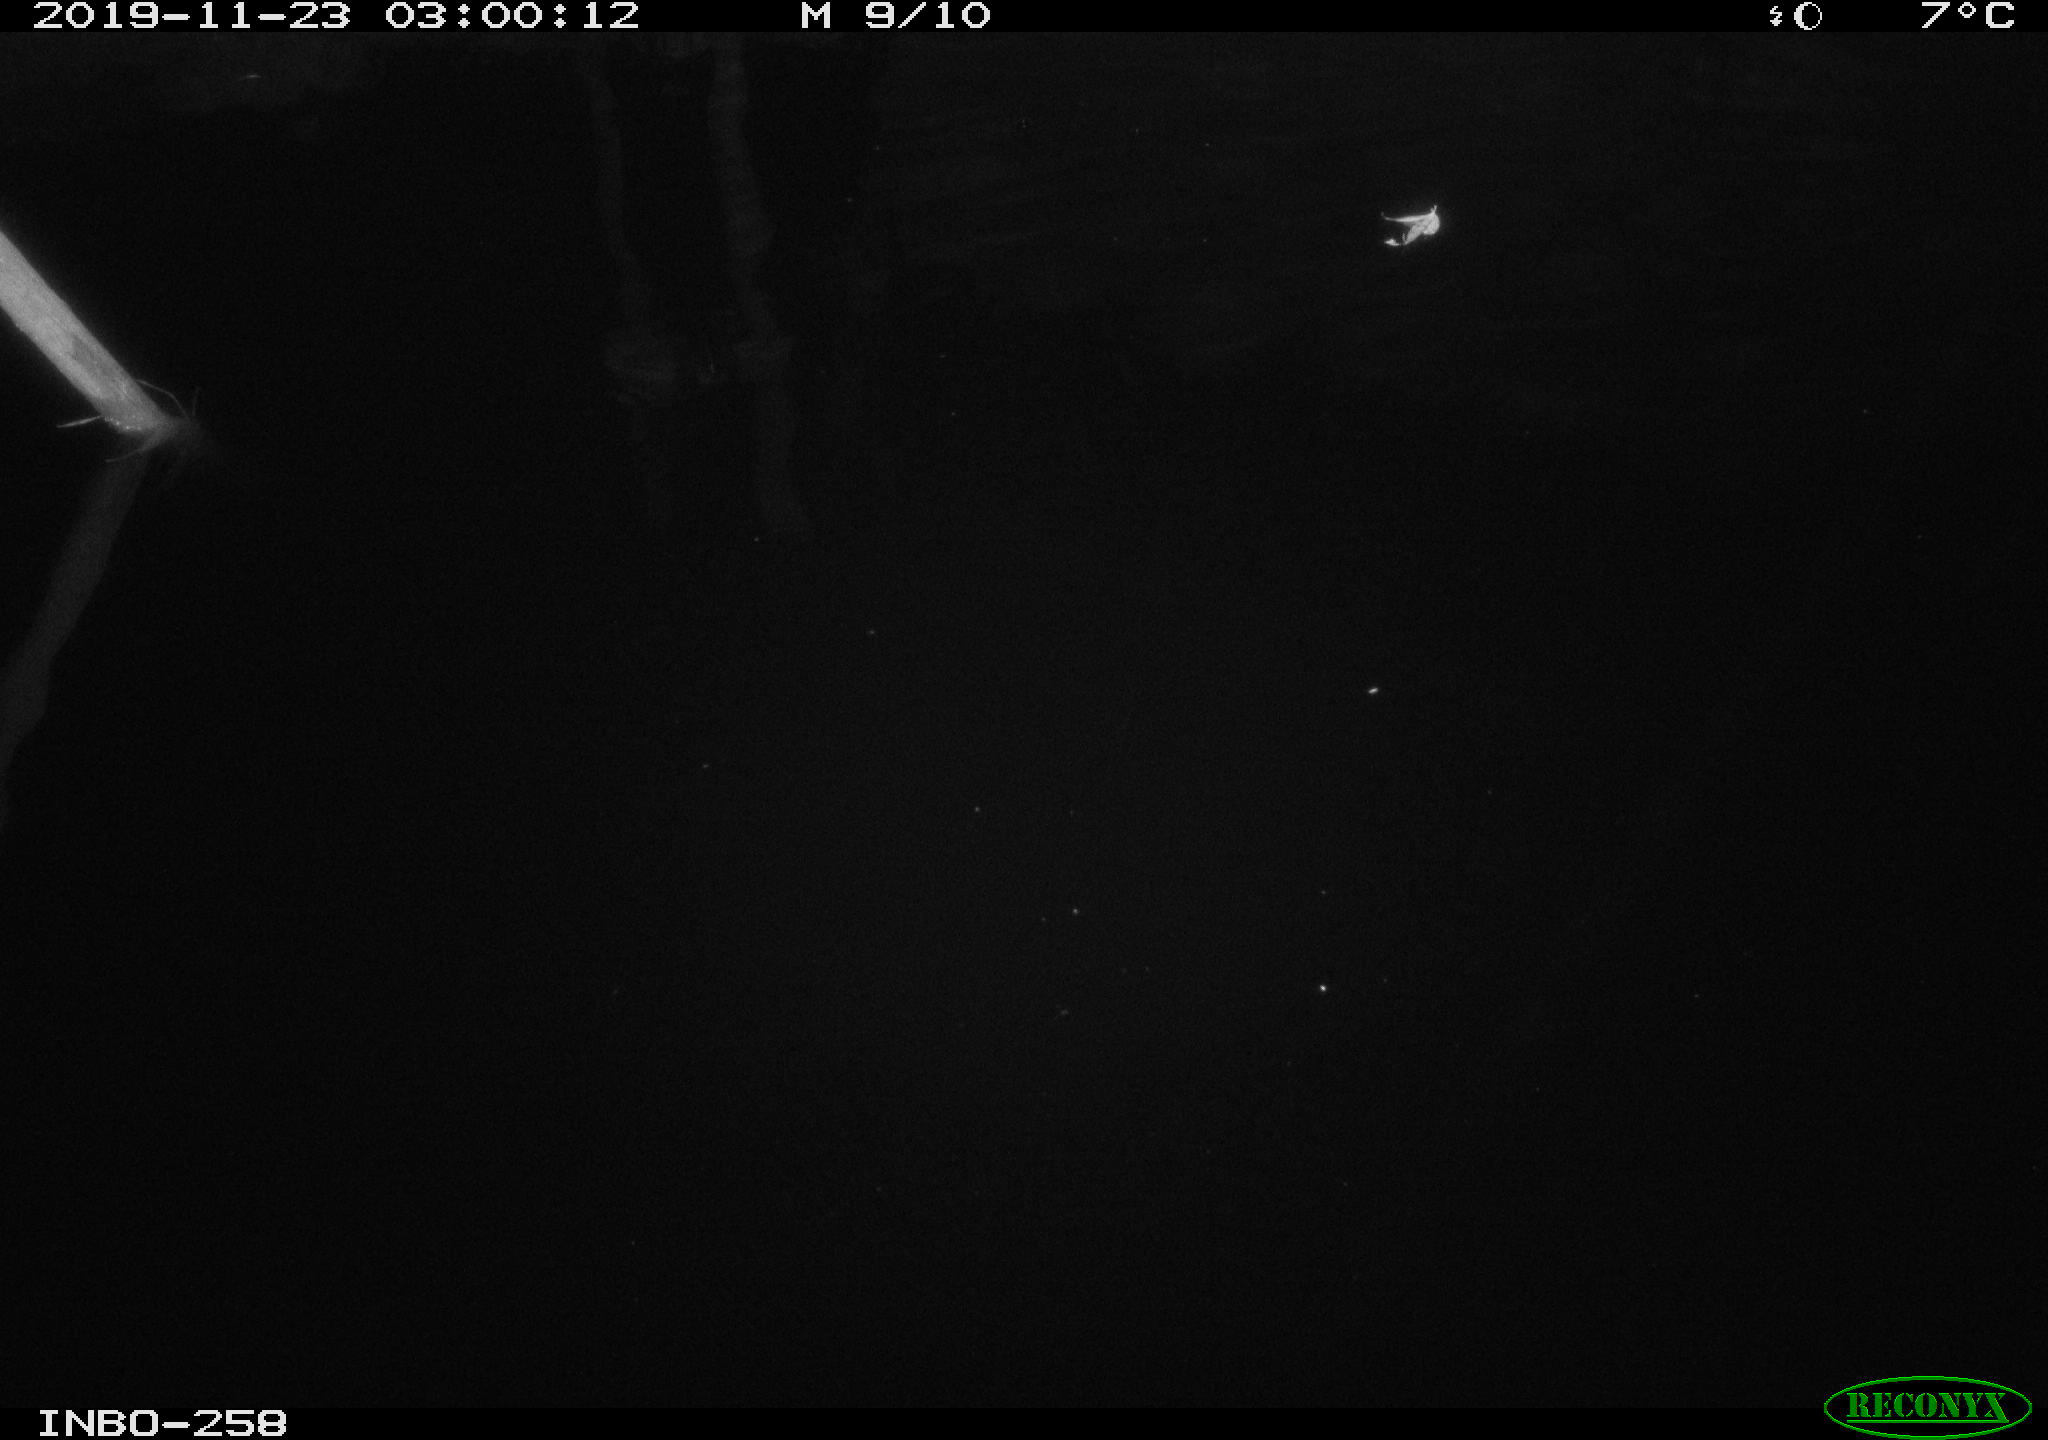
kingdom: Animalia
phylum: Chordata
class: Aves
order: Anseriformes
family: Anatidae
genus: Anas
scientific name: Anas platyrhynchos
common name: Mallard
